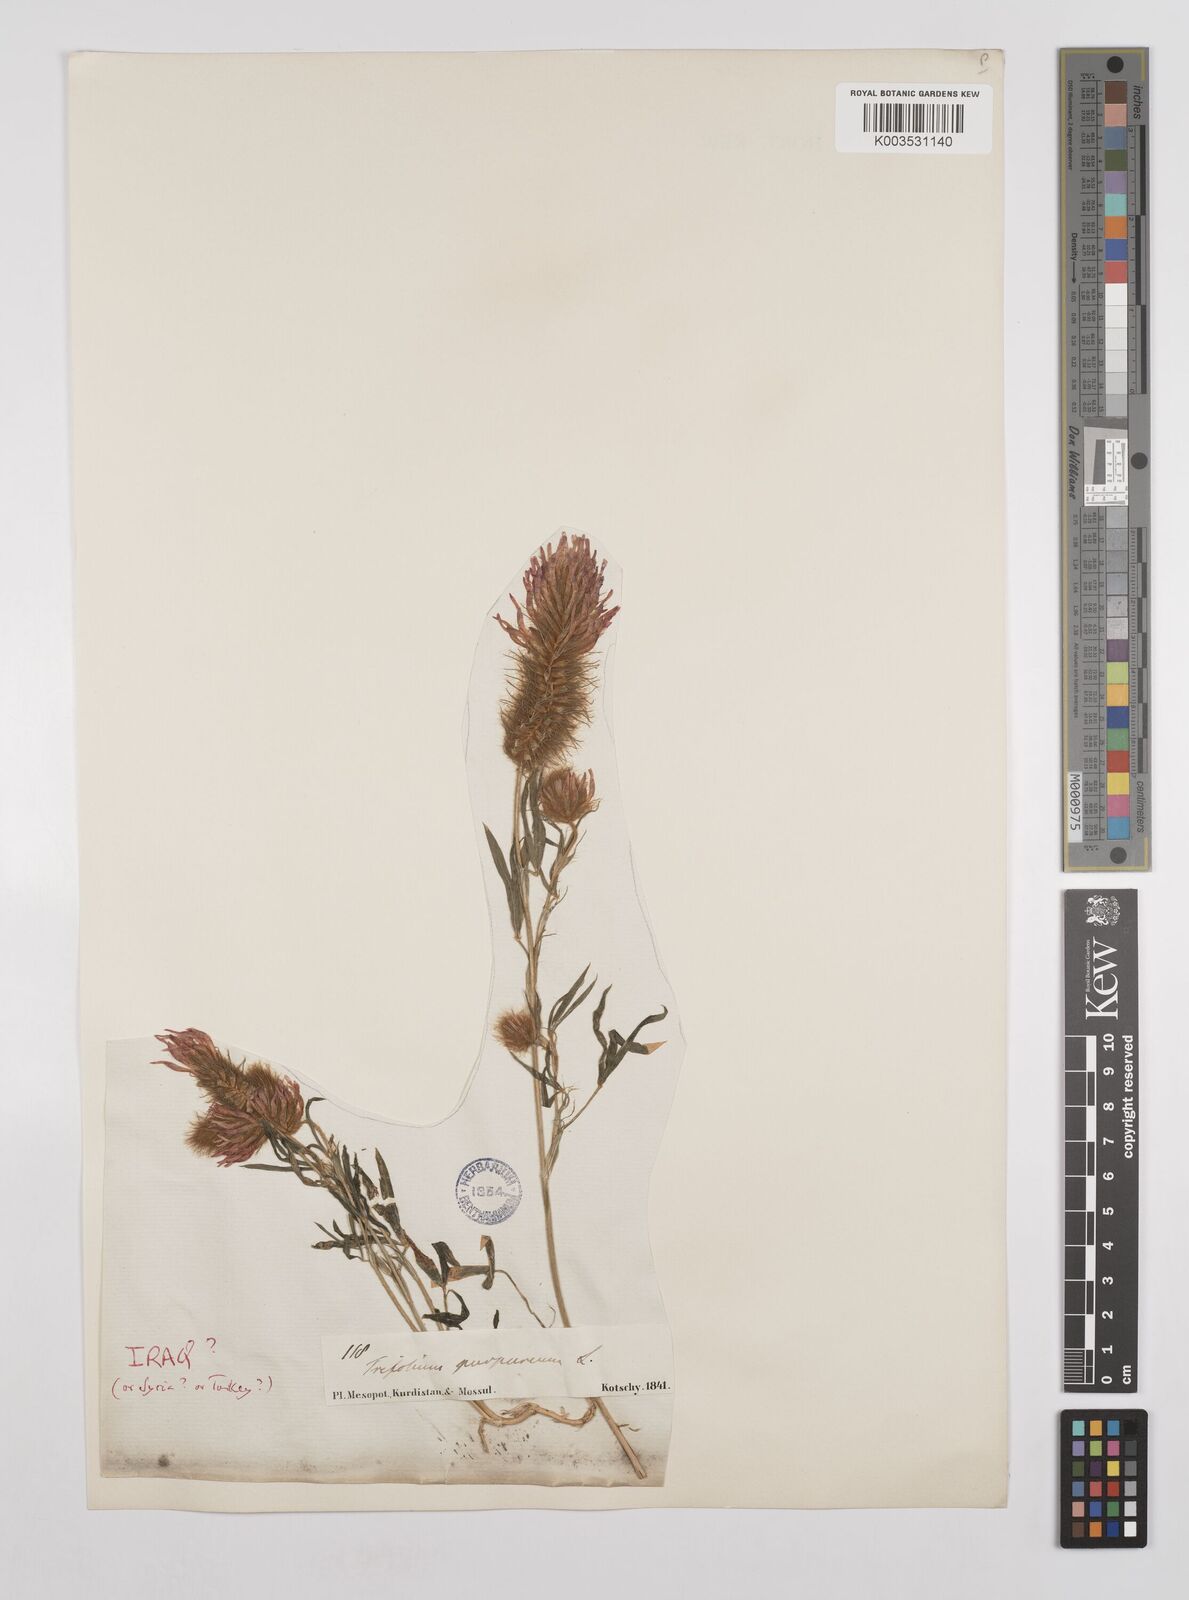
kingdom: Plantae
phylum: Tracheophyta
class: Magnoliopsida
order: Fabales
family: Fabaceae
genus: Trifolium
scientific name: Trifolium purpureum
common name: Purple clover
